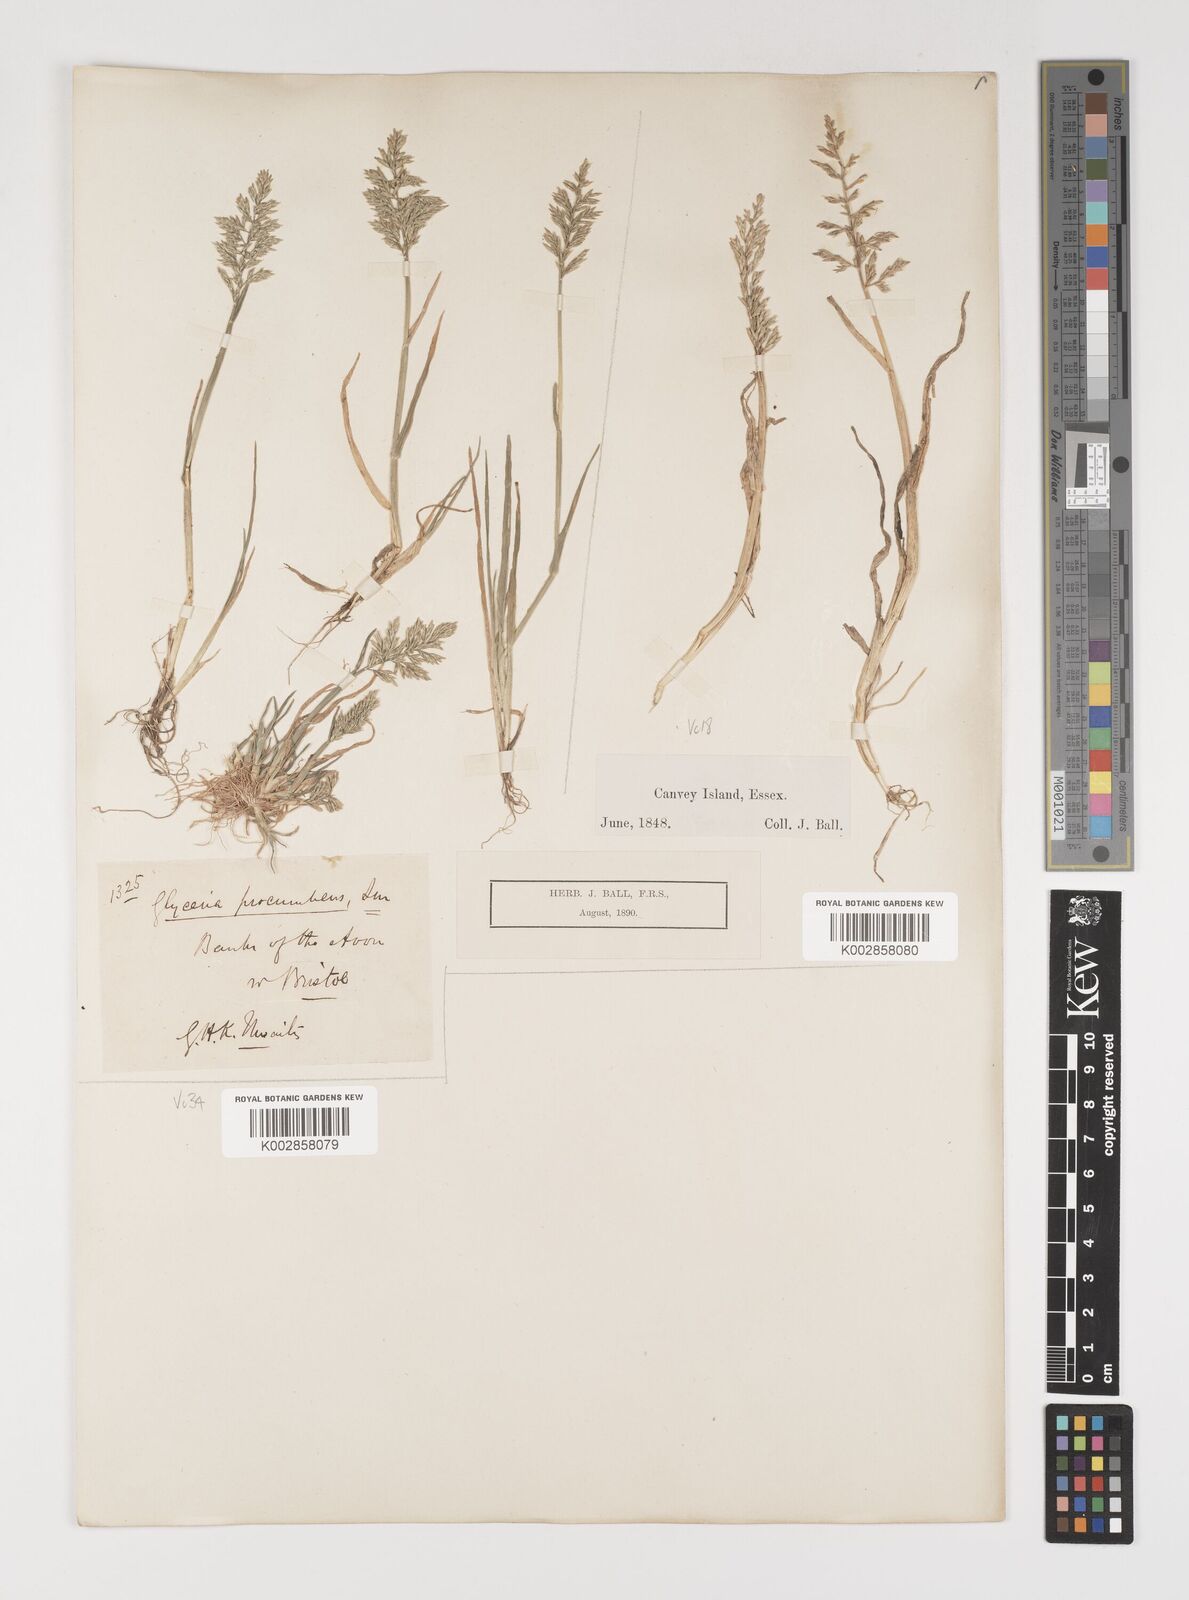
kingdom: Plantae
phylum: Tracheophyta
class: Liliopsida
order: Poales
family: Poaceae
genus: Puccinellia
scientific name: Puccinellia rupestris
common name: Stiff saltmarsh-grass
